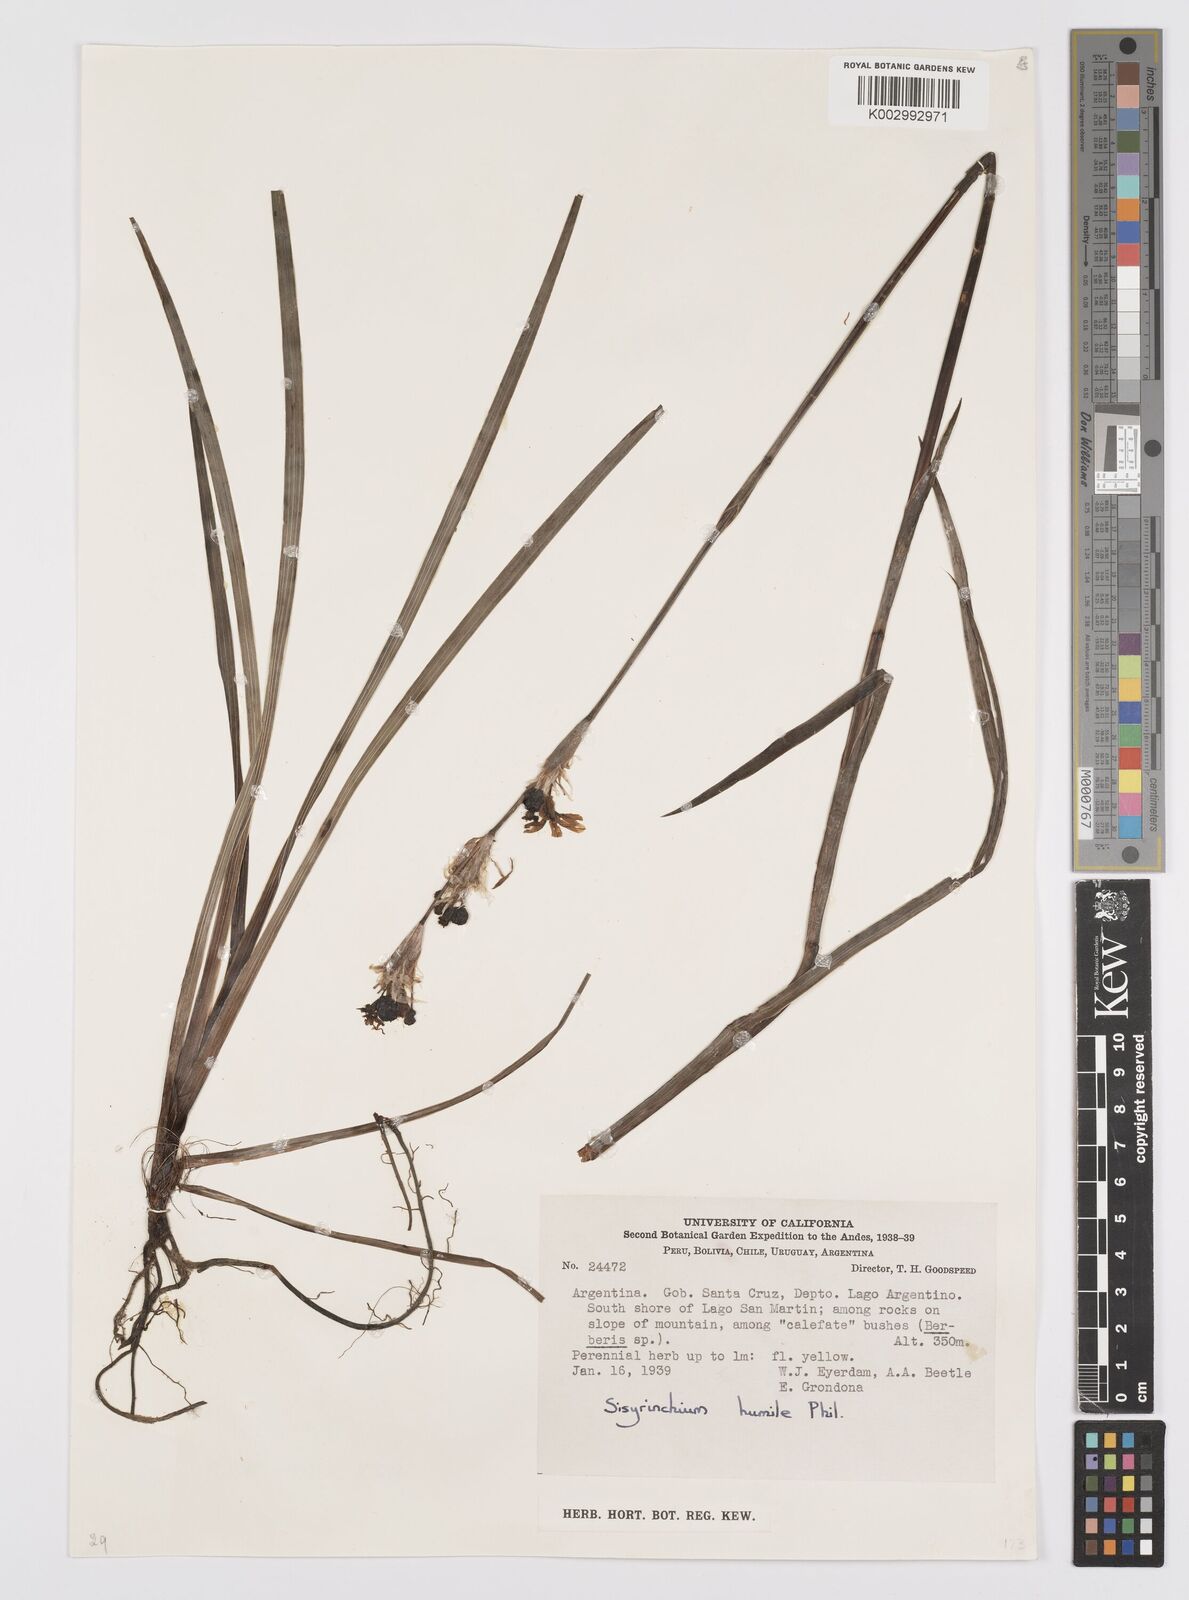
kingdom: Plantae
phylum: Tracheophyta
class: Liliopsida
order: Asparagales
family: Iridaceae
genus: Sisyrinchium
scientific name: Sisyrinchium arenarium
